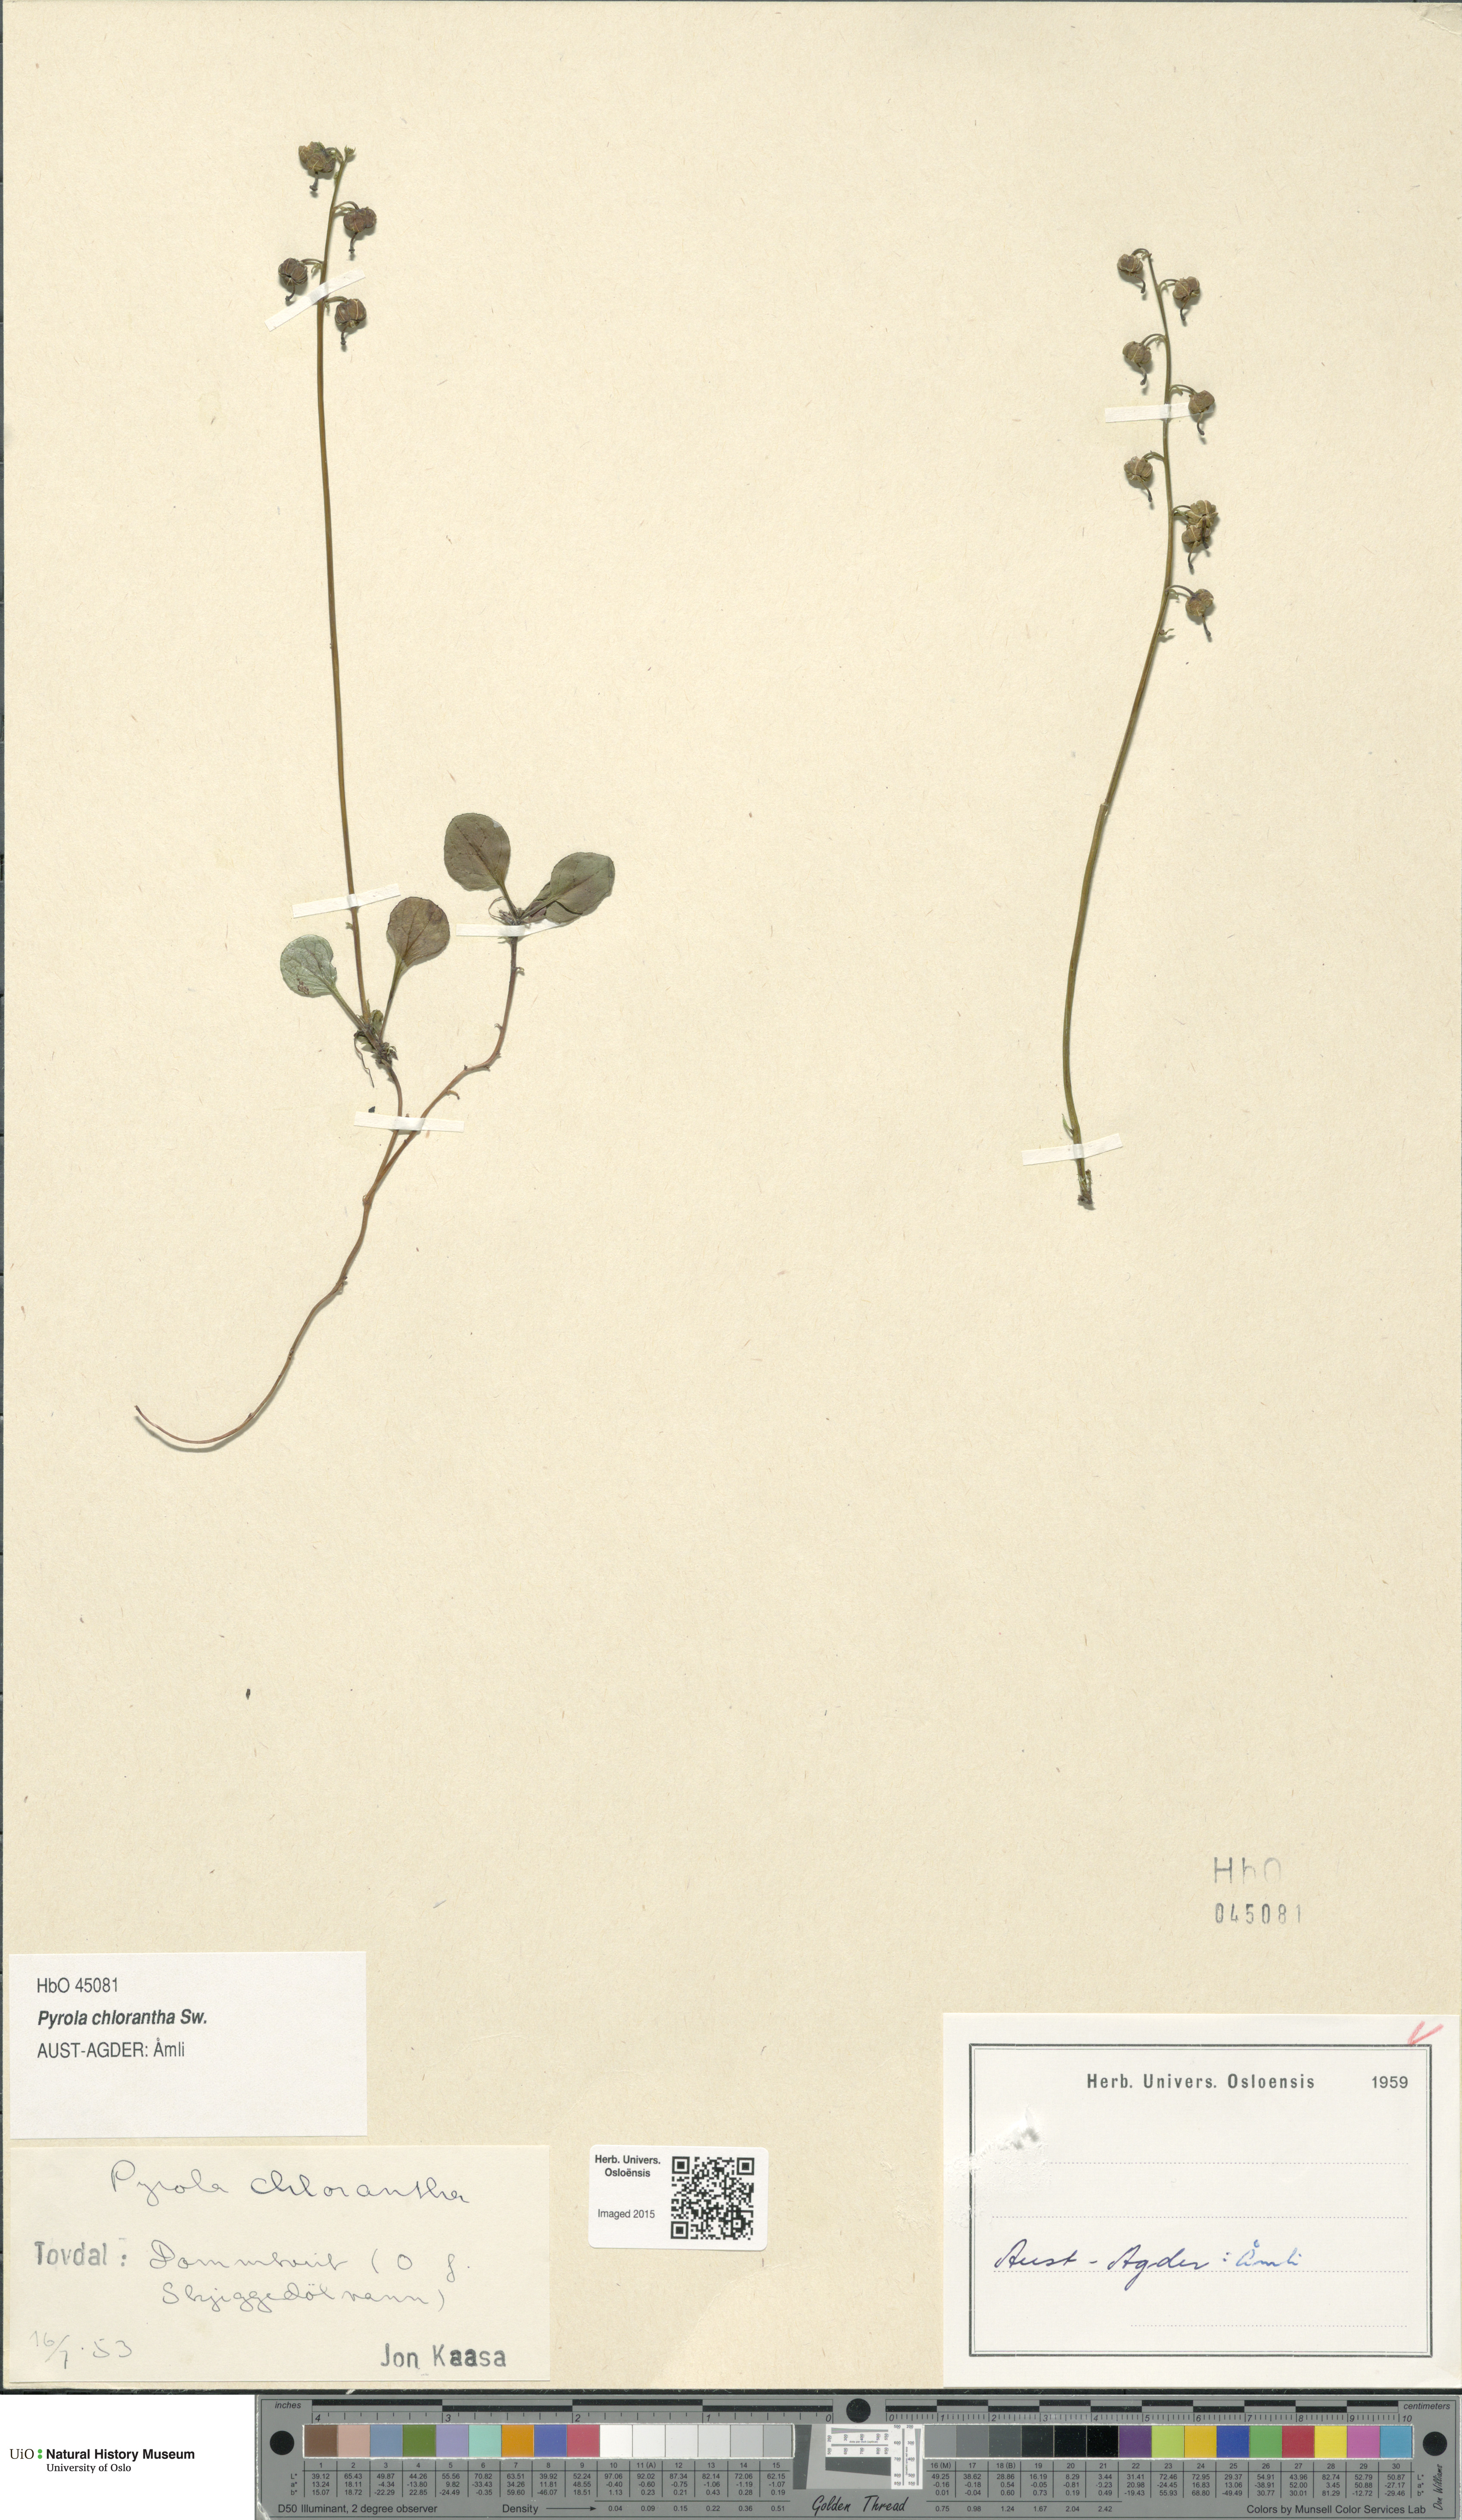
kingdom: Plantae
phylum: Tracheophyta
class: Magnoliopsida
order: Ericales
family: Ericaceae
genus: Pyrola
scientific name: Pyrola chlorantha
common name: Green wintergreen
